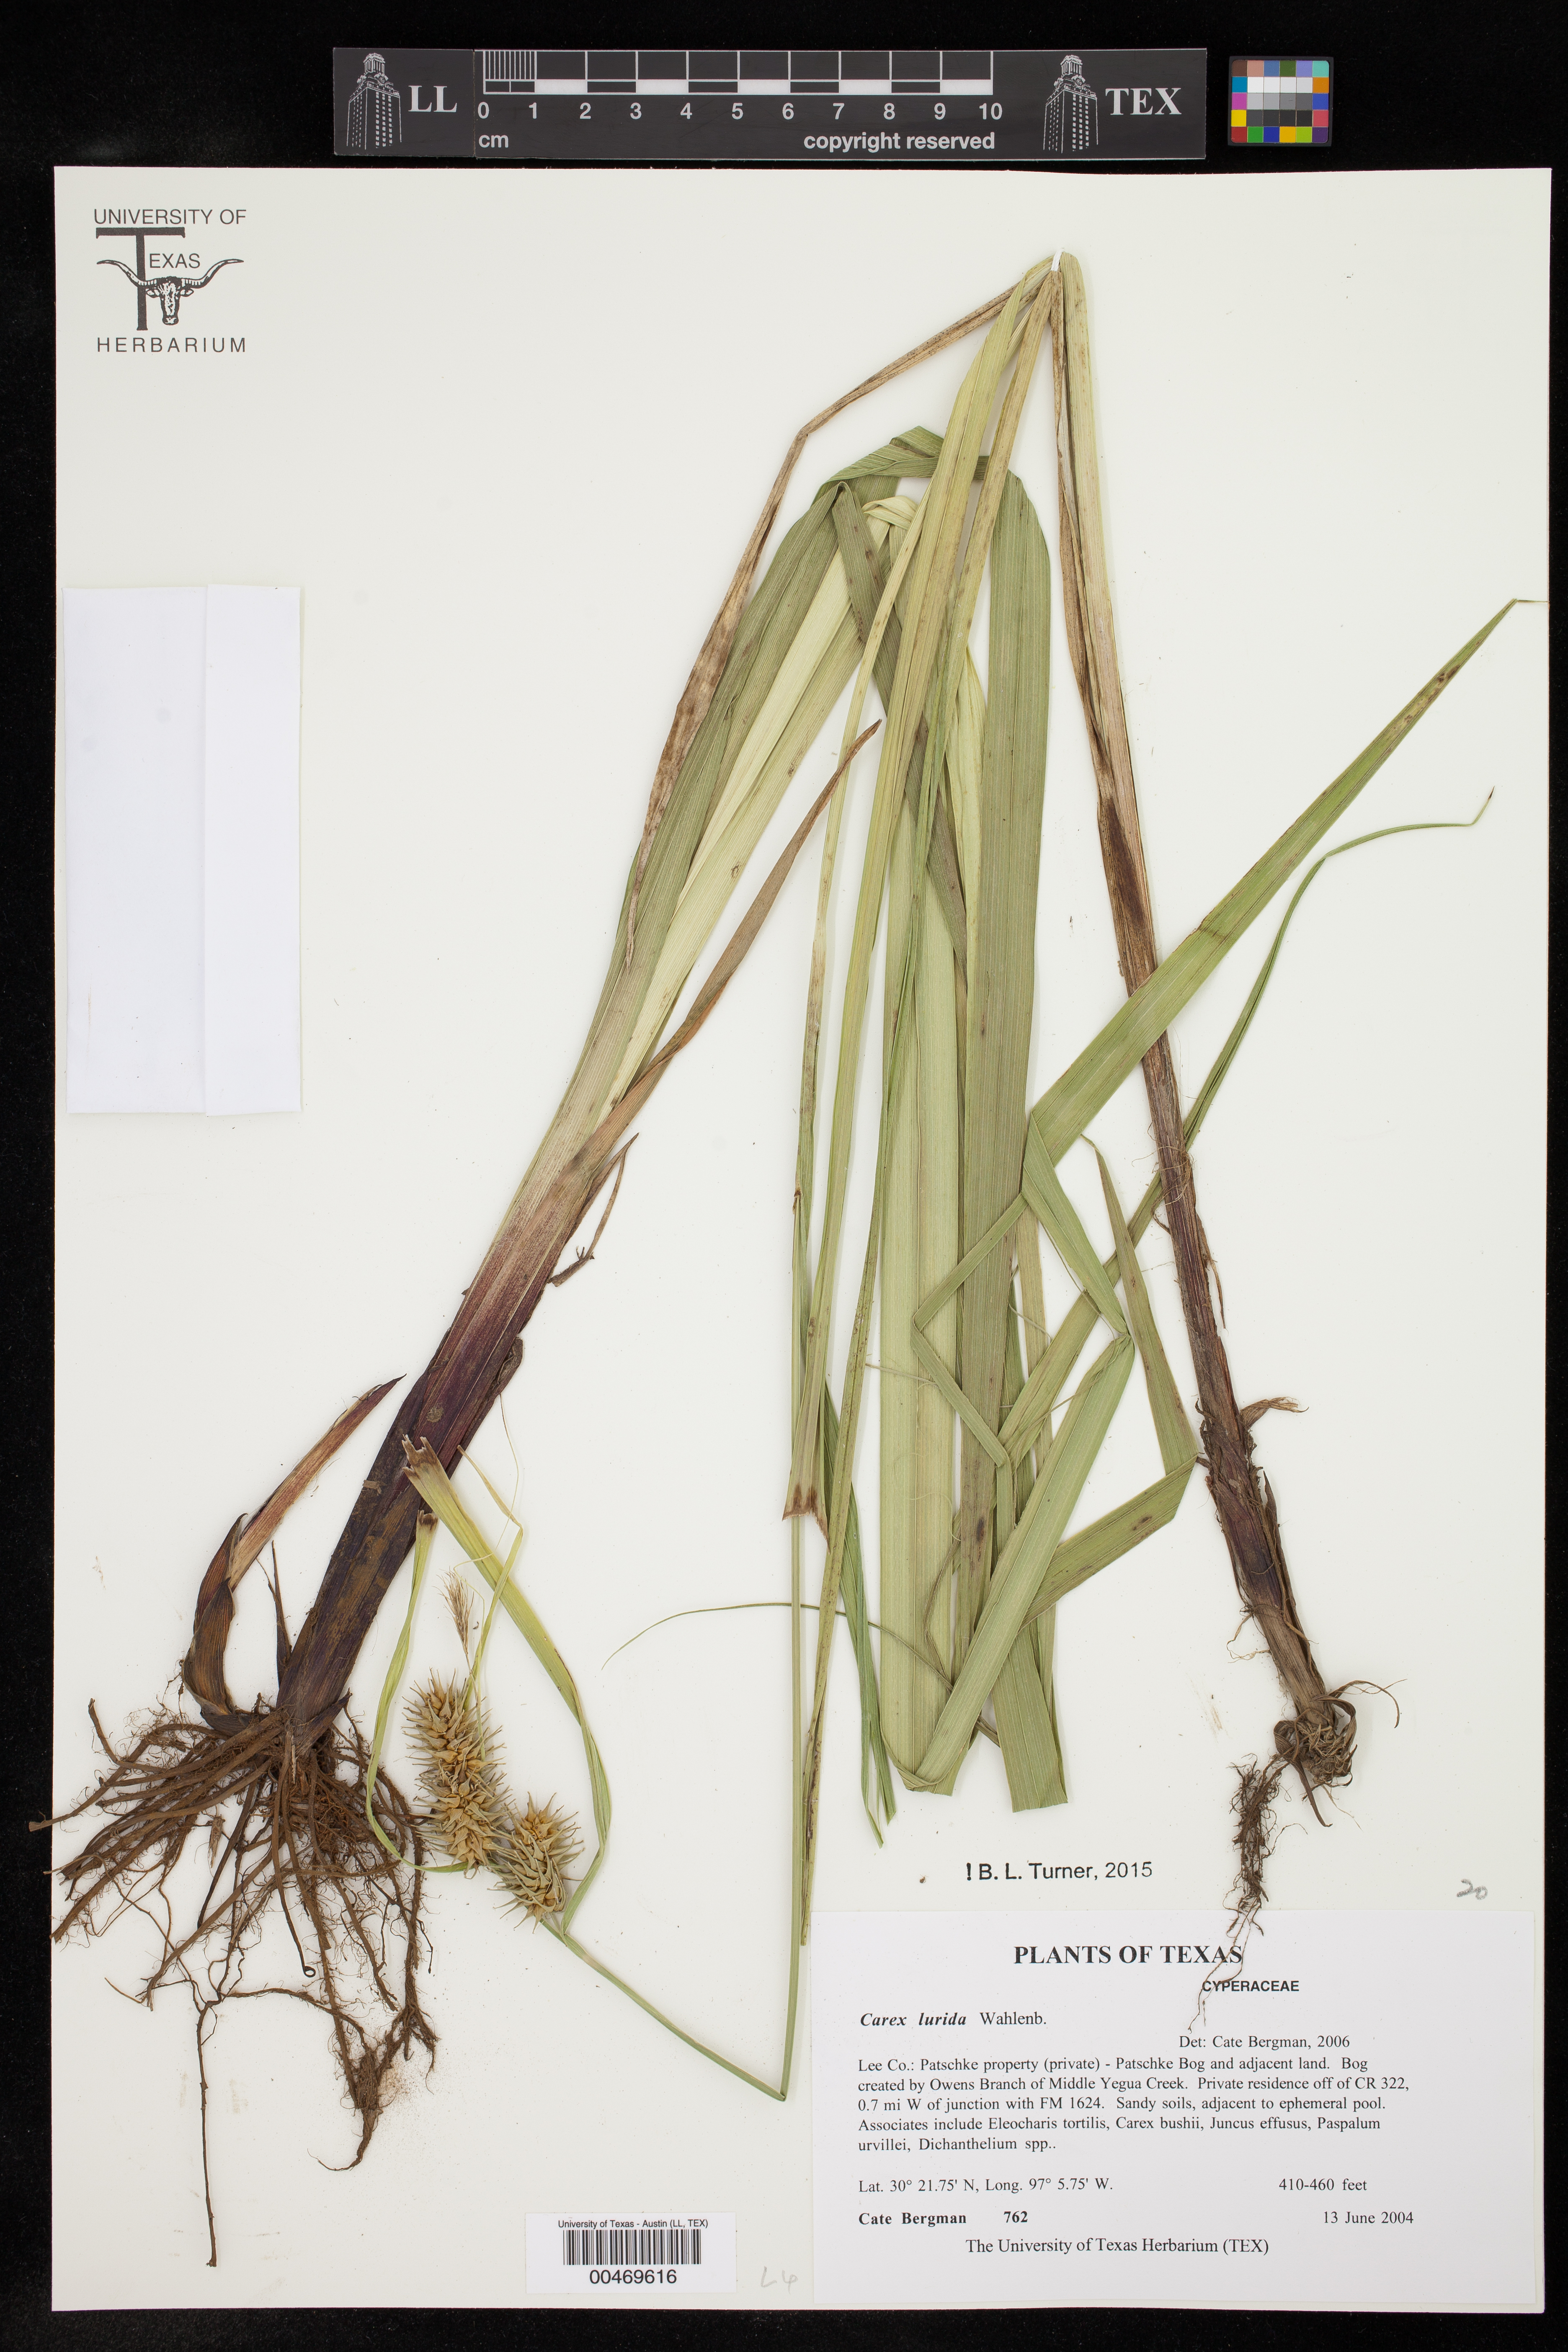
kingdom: Plantae
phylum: Tracheophyta
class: Liliopsida
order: Poales
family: Cyperaceae
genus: Carex
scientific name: Carex lurida
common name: Sallow sedge
